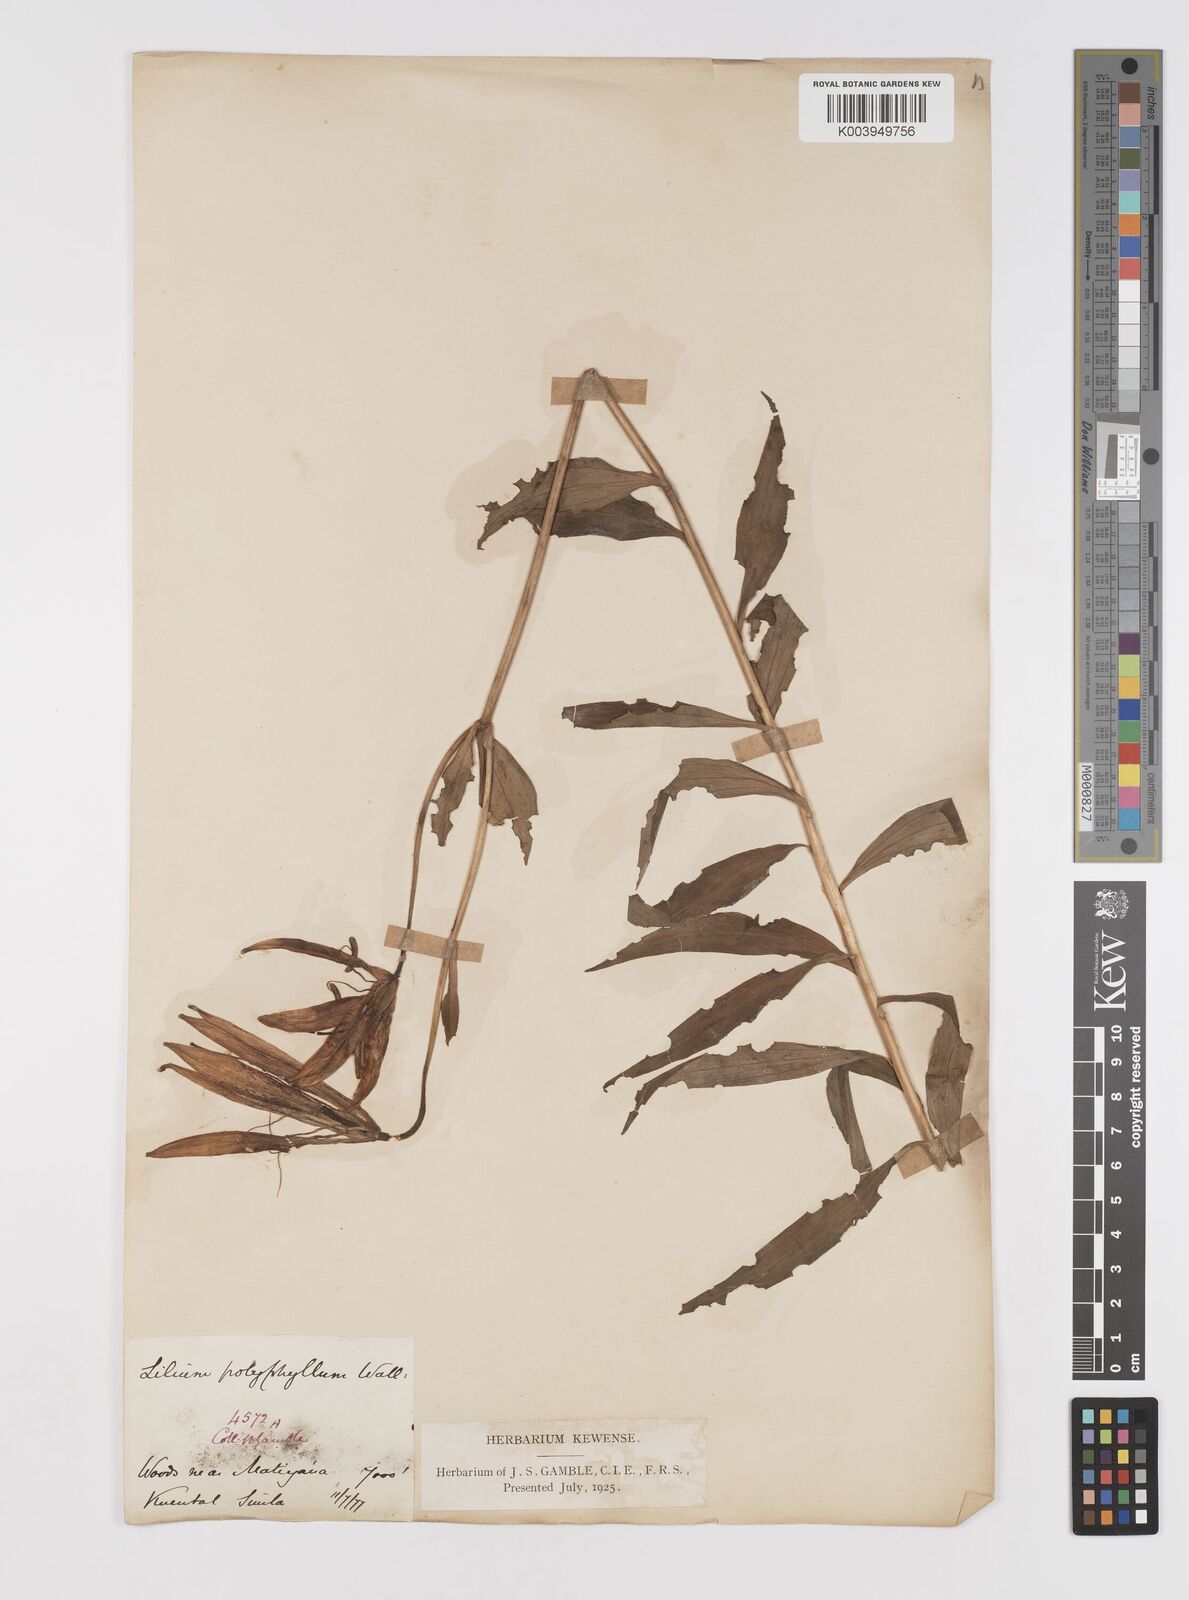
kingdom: Plantae
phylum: Tracheophyta
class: Liliopsida
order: Liliales
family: Liliaceae
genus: Lilium
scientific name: Lilium polyphyllum
